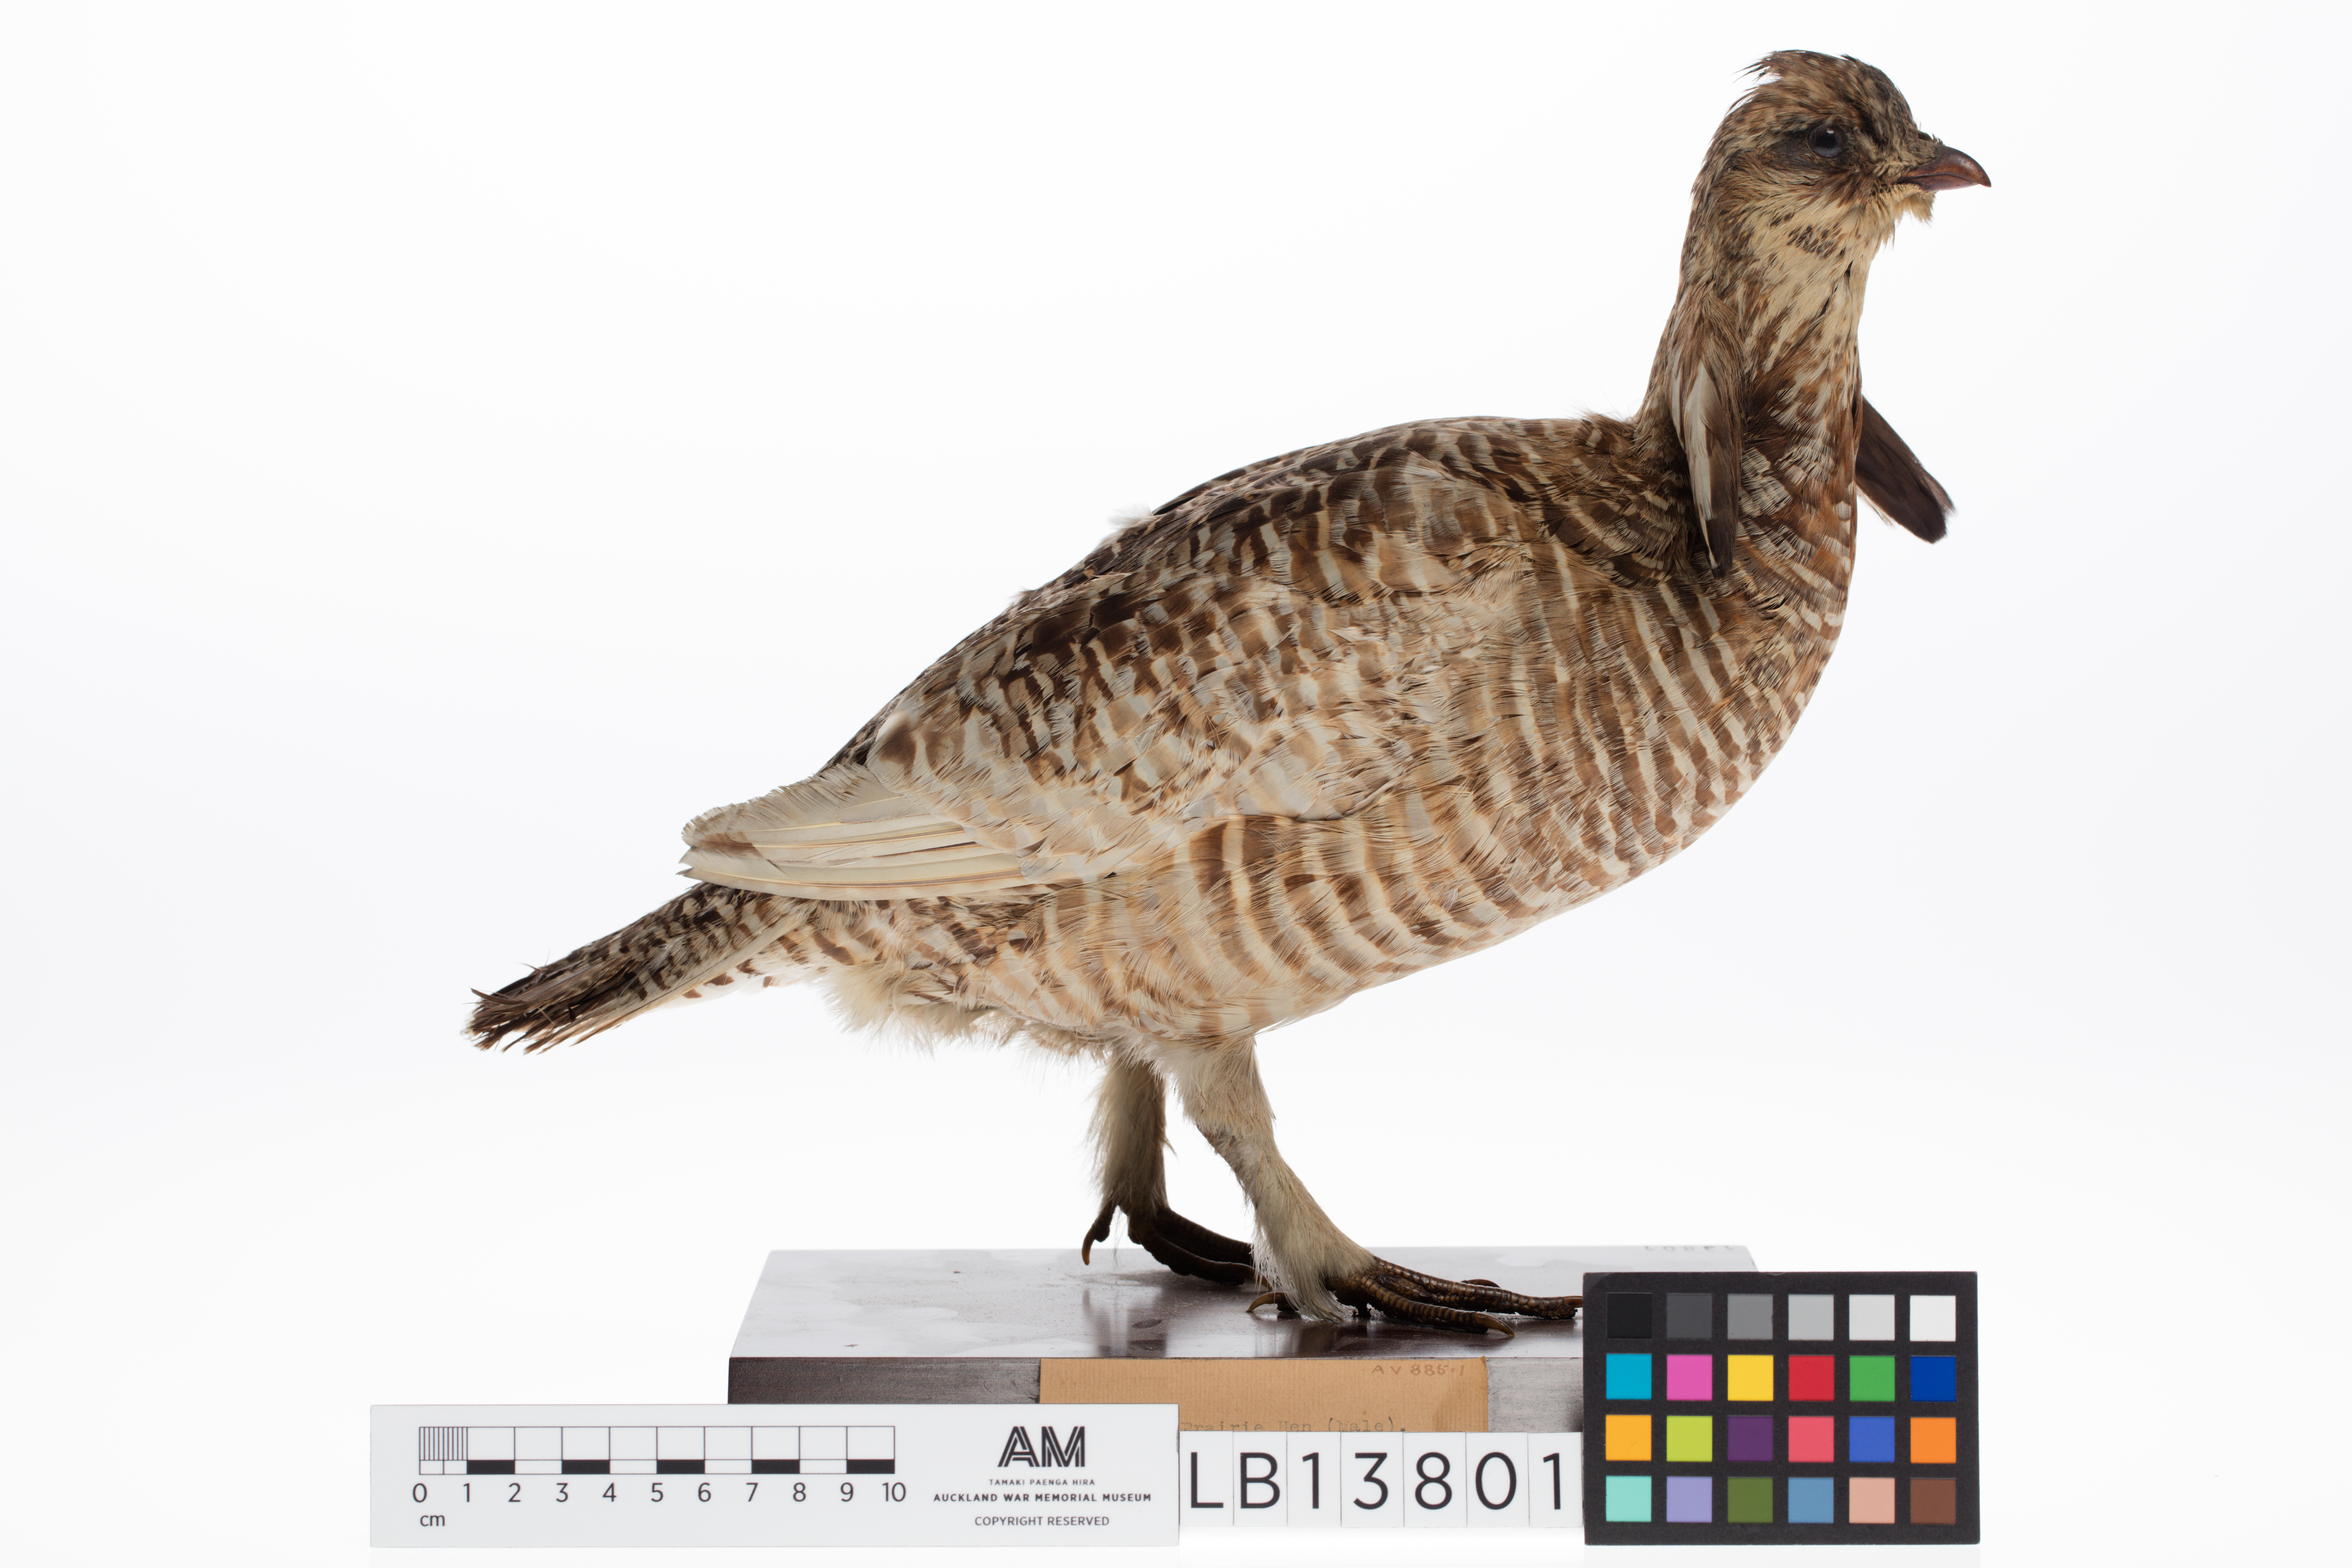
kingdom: Animalia
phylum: Chordata
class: Aves
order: Galliformes
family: Phasianidae
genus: Tympanuchus
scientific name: Tympanuchus cupido
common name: Greater prairie chicken
